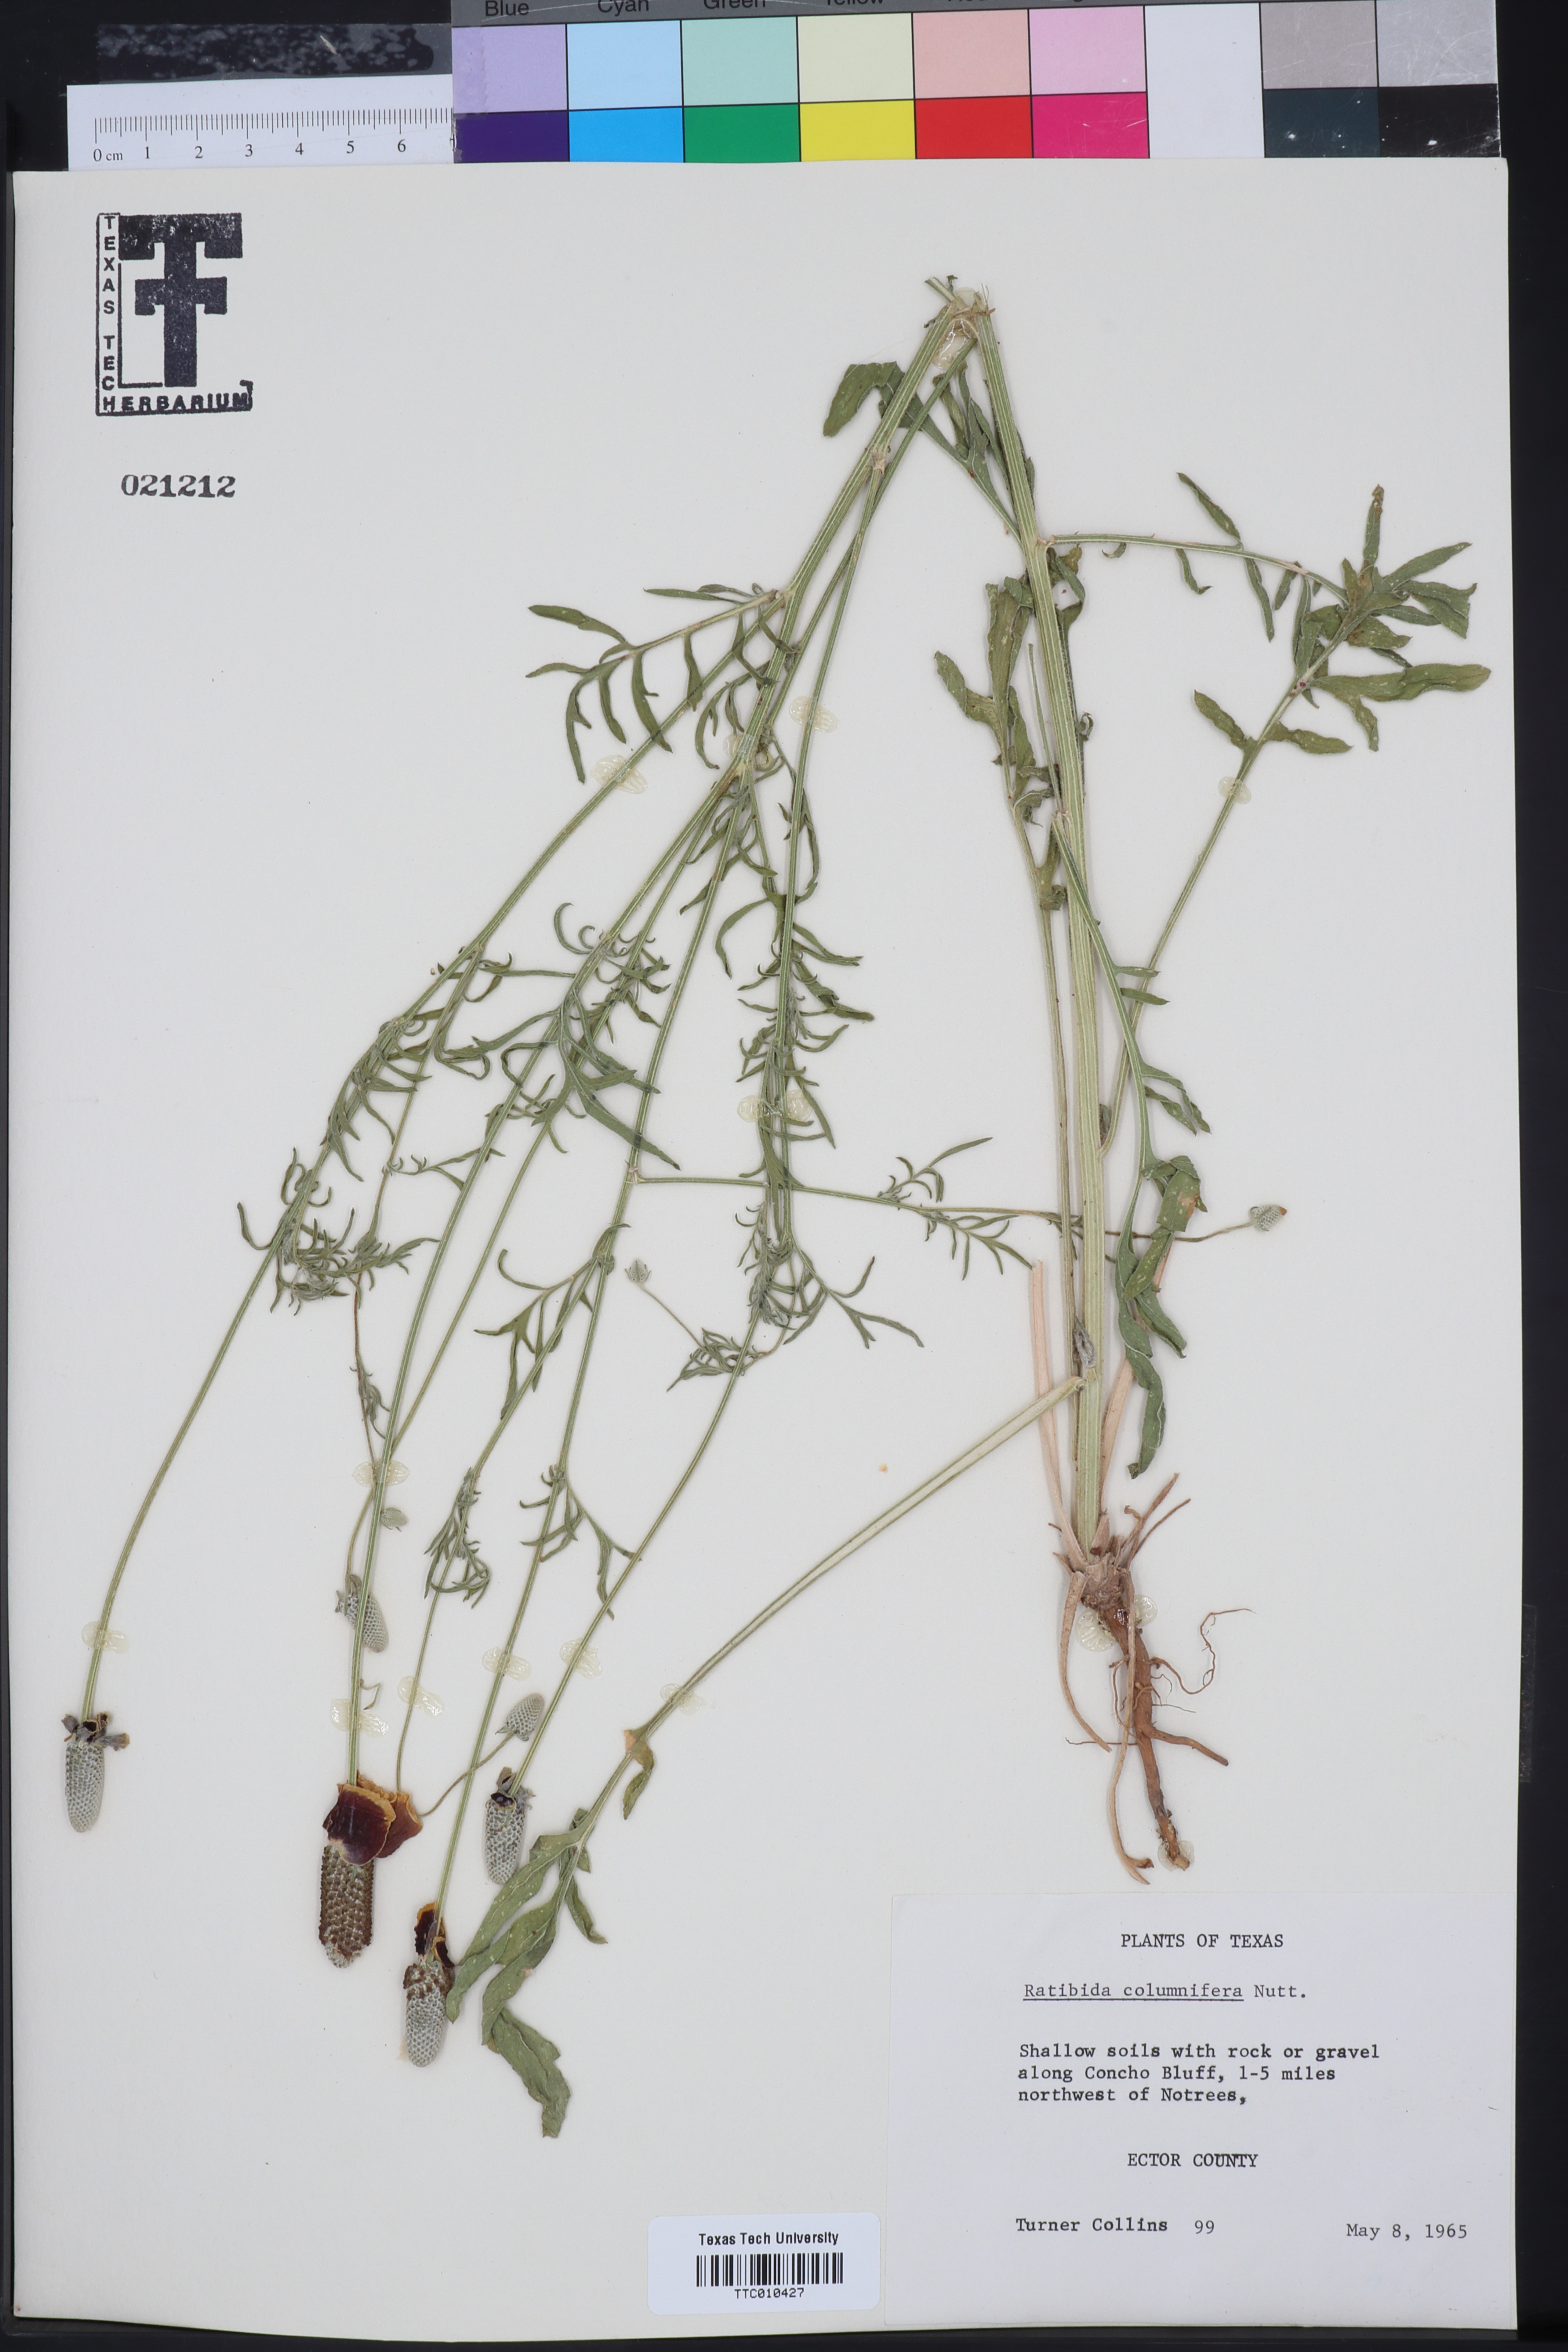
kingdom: Plantae
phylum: Tracheophyta
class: Magnoliopsida
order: Asterales
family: Asteraceae
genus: Ratibida
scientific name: Ratibida columnifera
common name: Prairie coneflower
